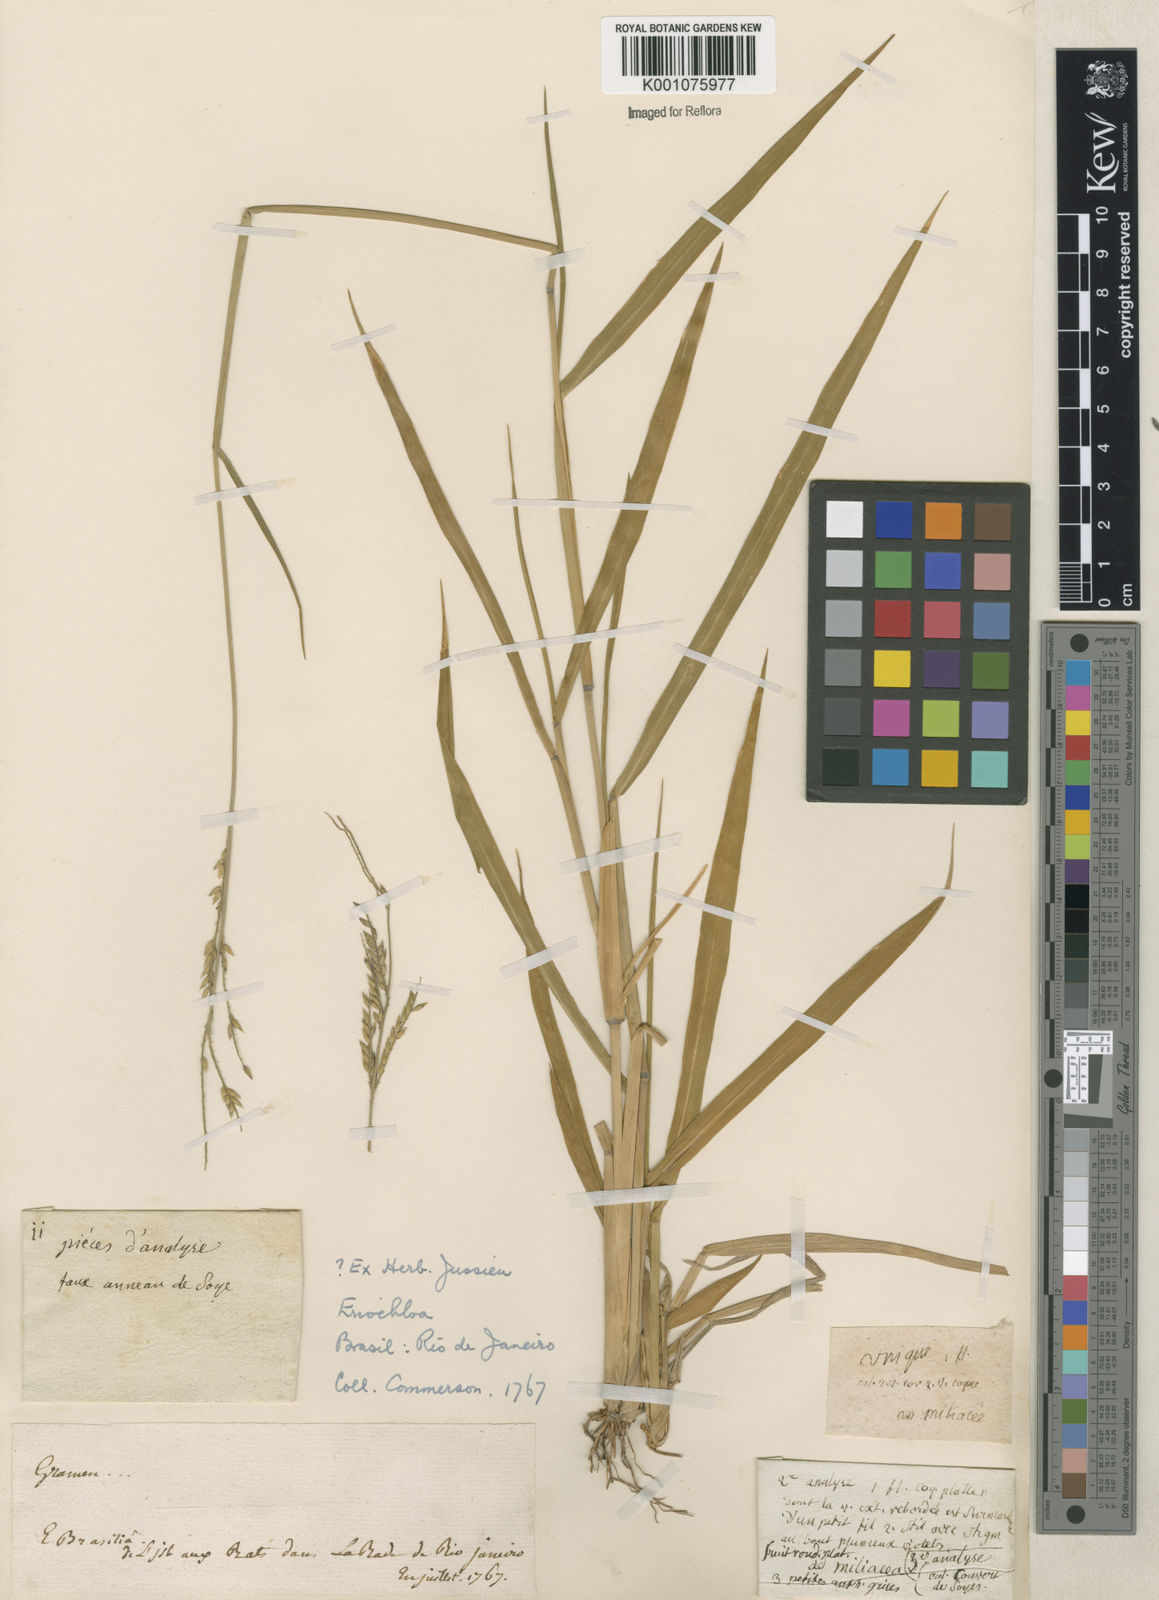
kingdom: Plantae
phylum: Tracheophyta
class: Liliopsida
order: Poales
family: Poaceae
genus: Eriochloa
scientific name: Eriochloa punctata
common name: Louisiana cupgrass
